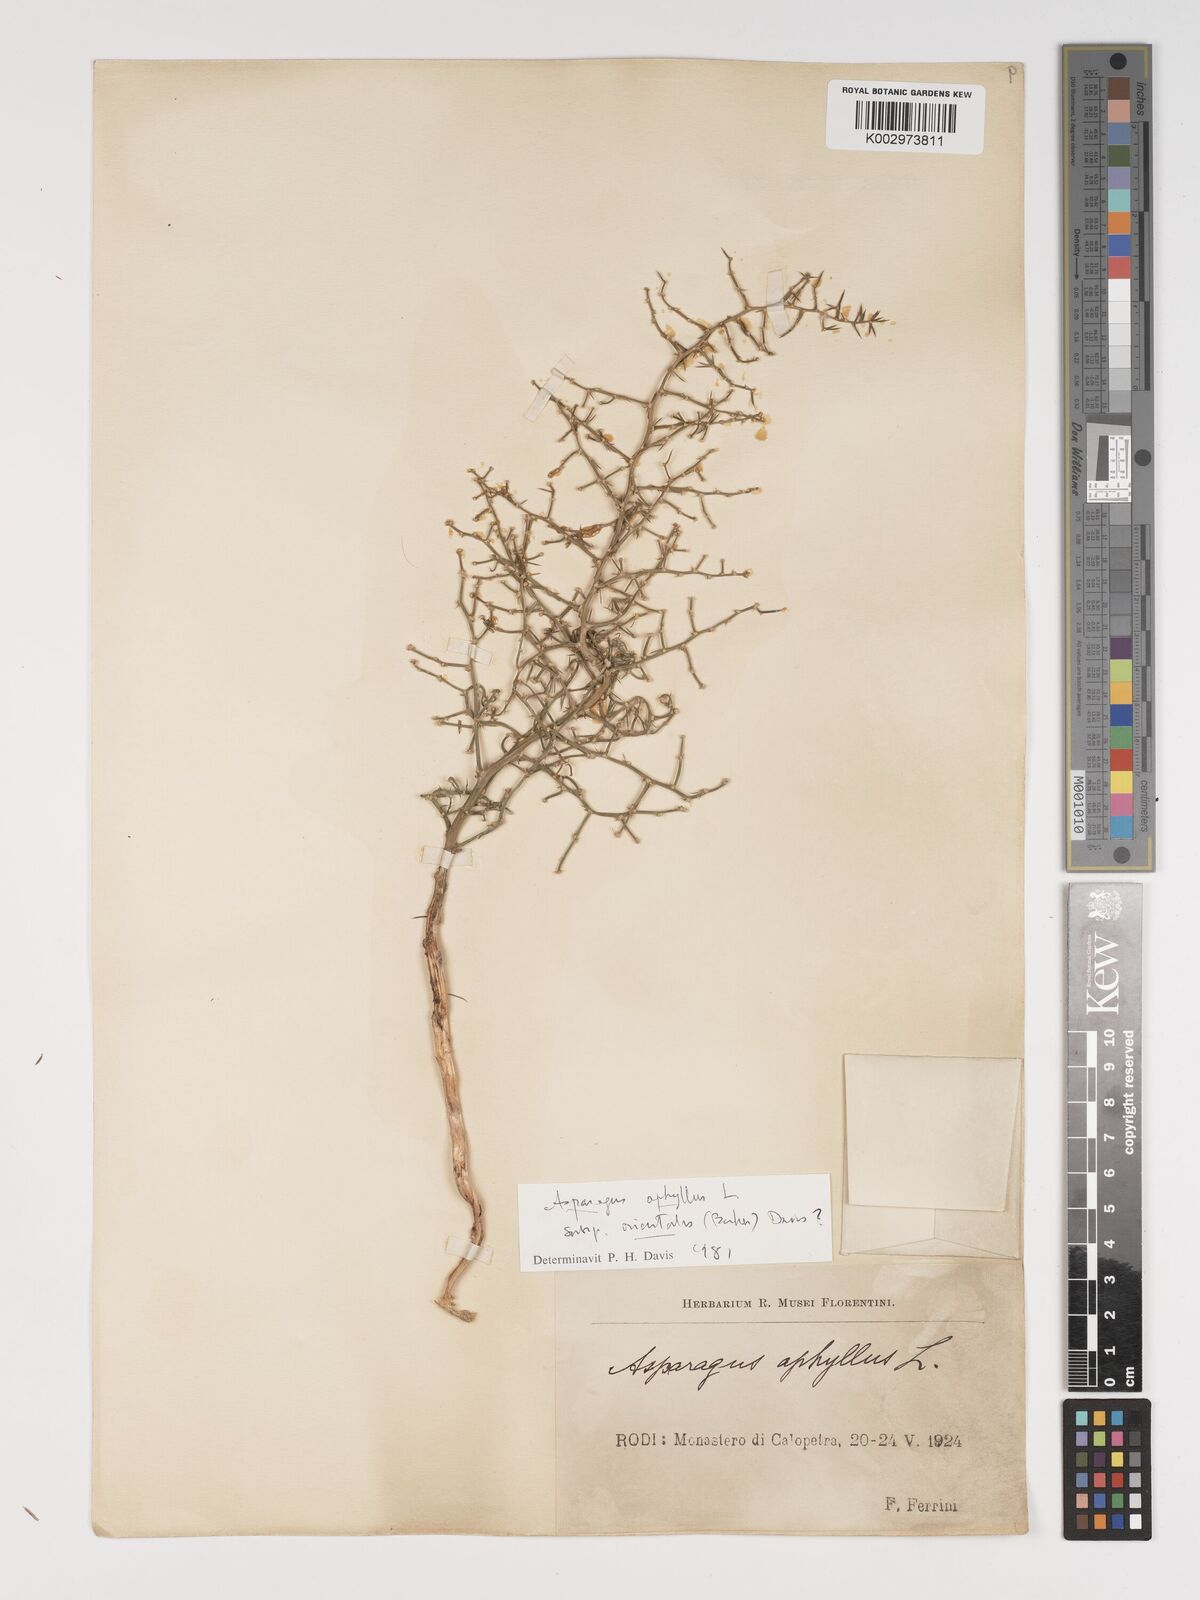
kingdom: Plantae
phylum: Tracheophyta
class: Liliopsida
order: Asparagales
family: Asparagaceae
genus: Asparagus
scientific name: Asparagus
